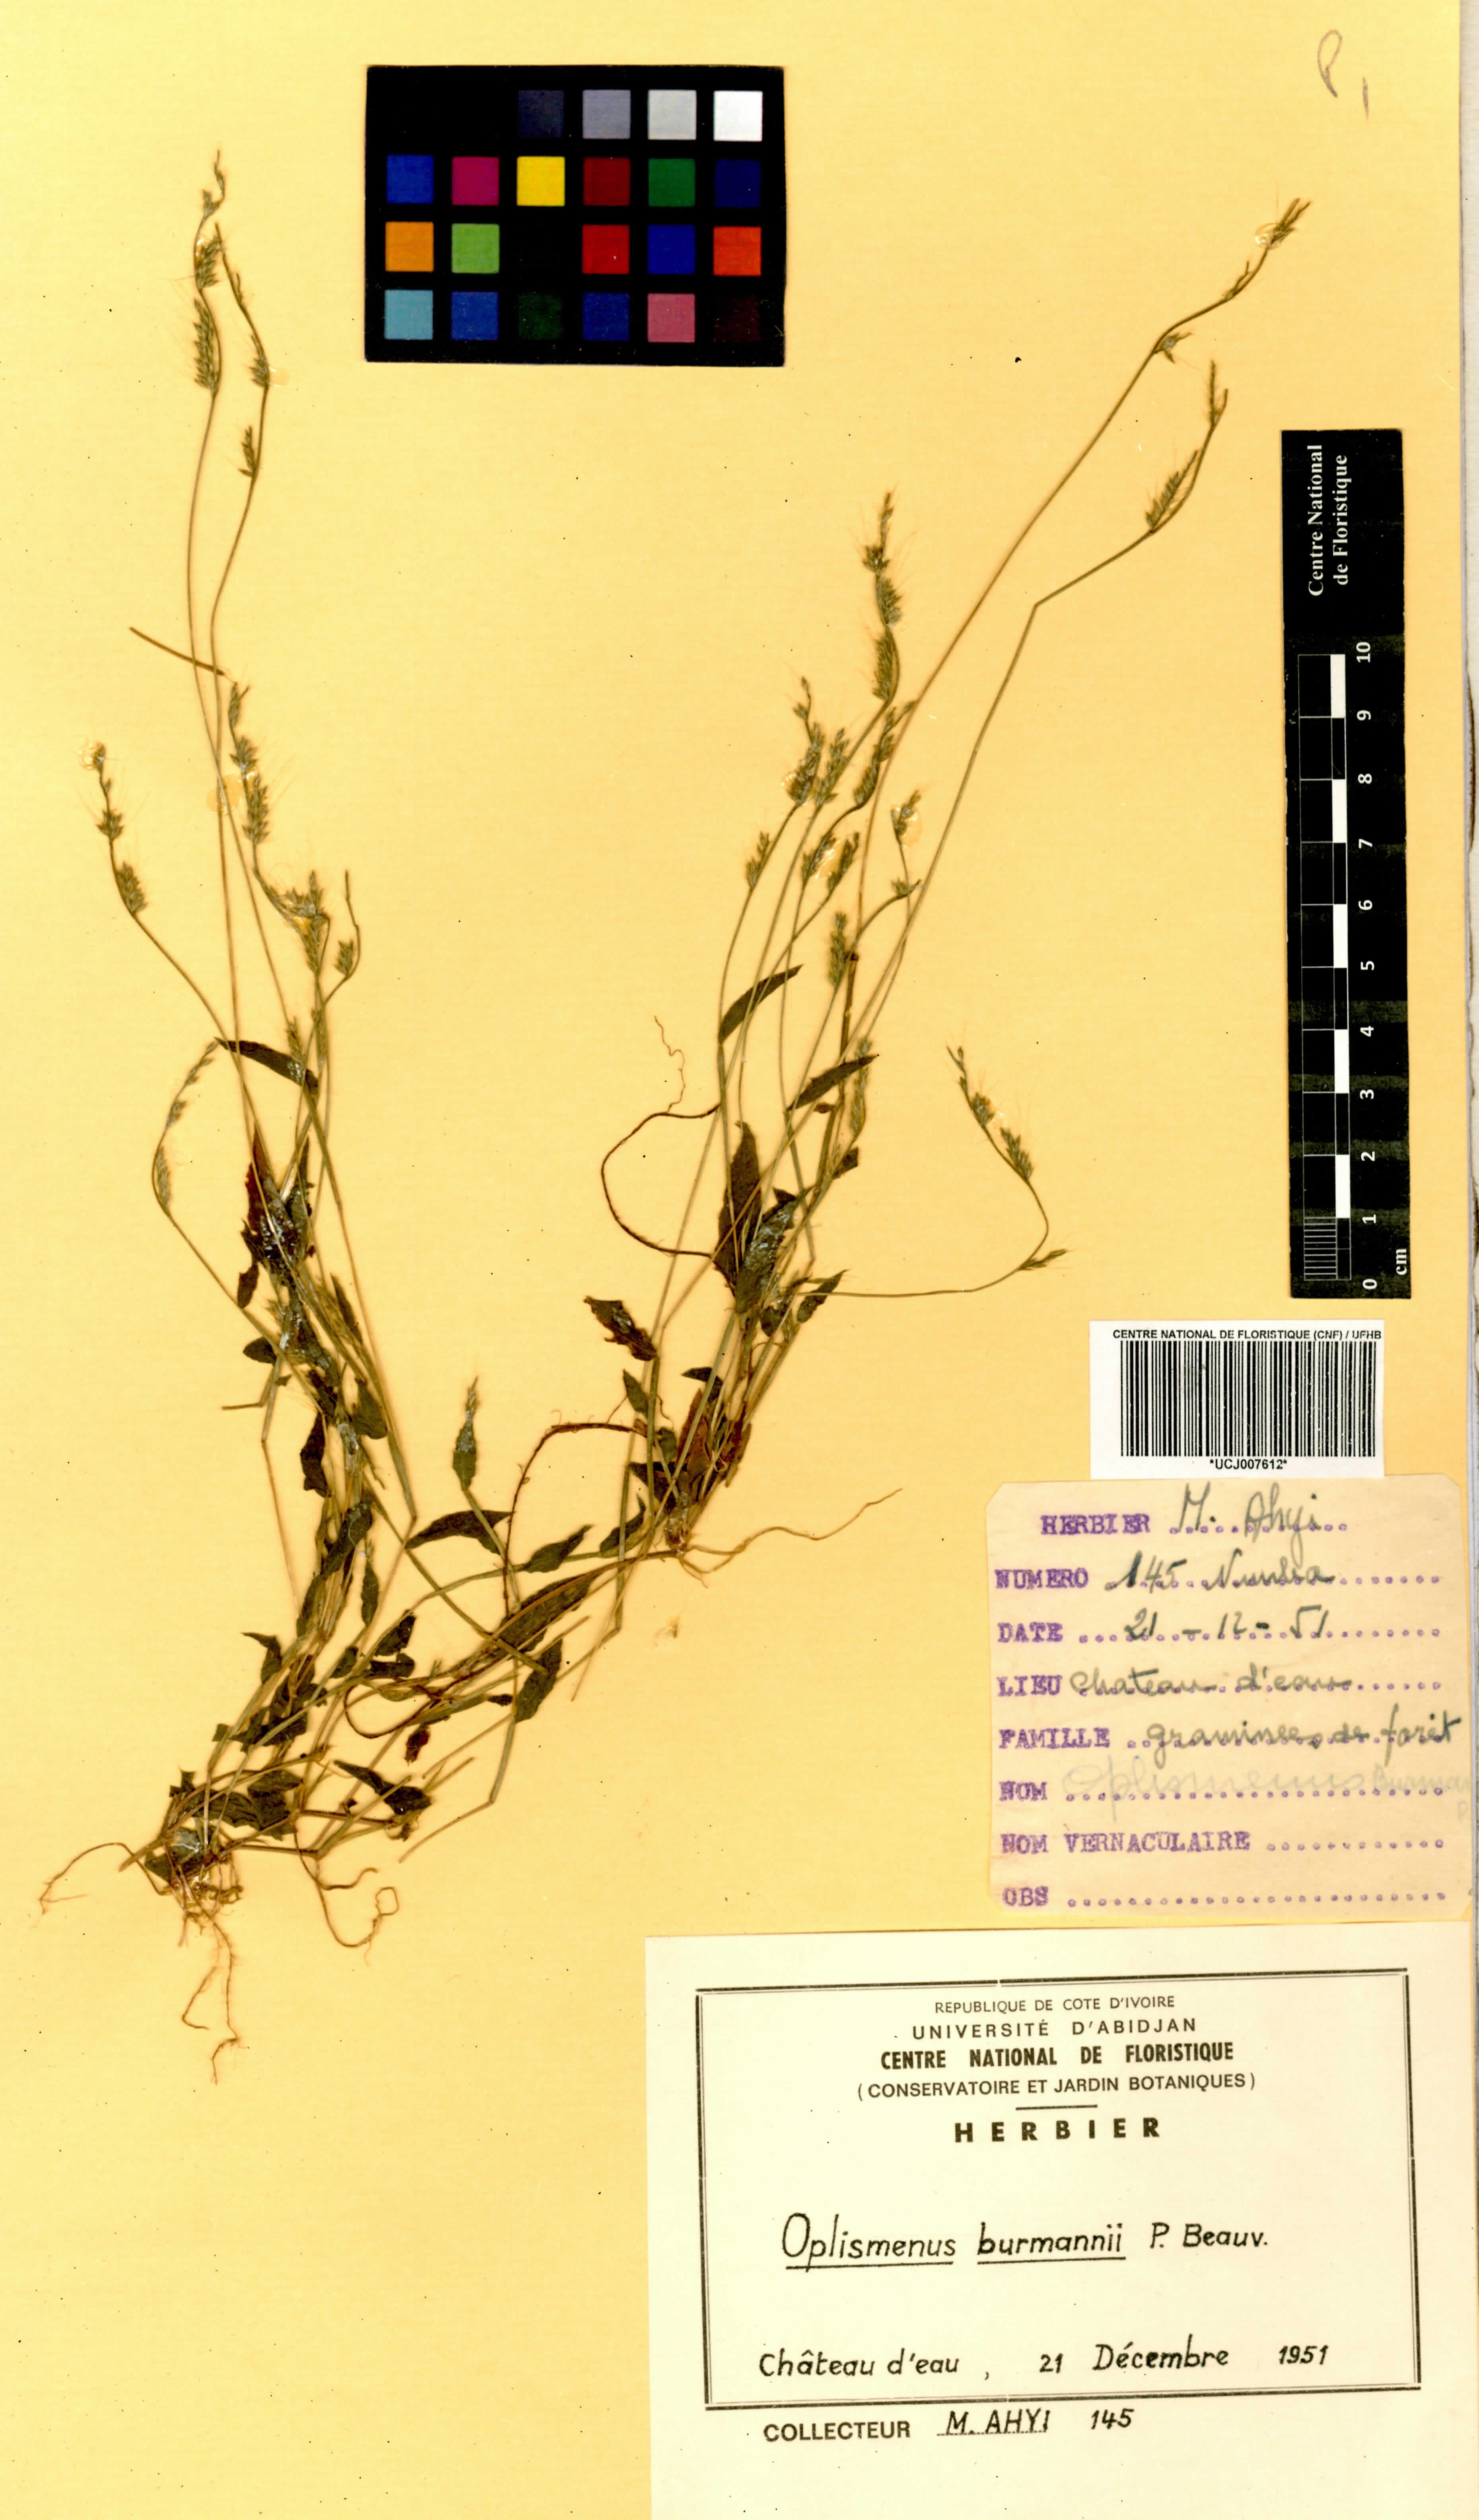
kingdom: Plantae
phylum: Tracheophyta
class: Liliopsida
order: Poales
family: Poaceae
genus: Oplismenus
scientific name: Oplismenus burmanni
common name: Burmann's basketgrass
